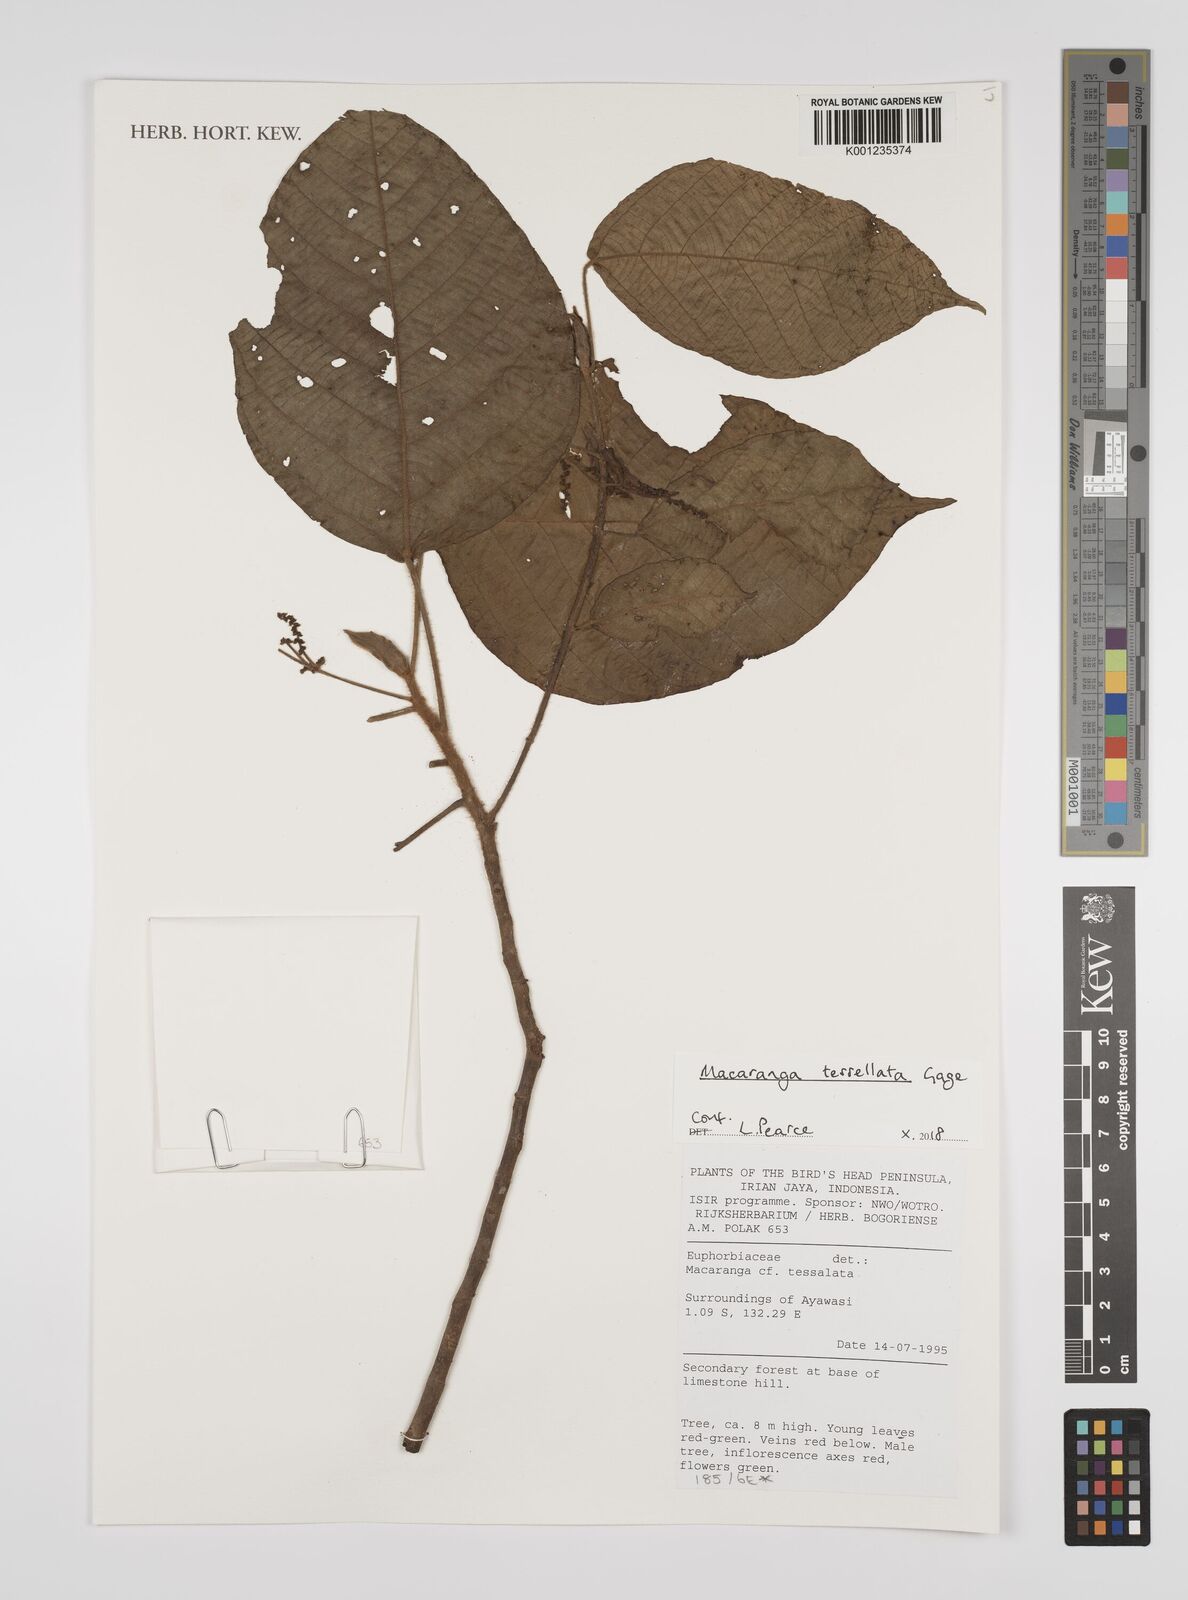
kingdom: Plantae
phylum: Tracheophyta
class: Magnoliopsida
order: Malpighiales
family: Euphorbiaceae
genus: Macaranga
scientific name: Macaranga tessellata
